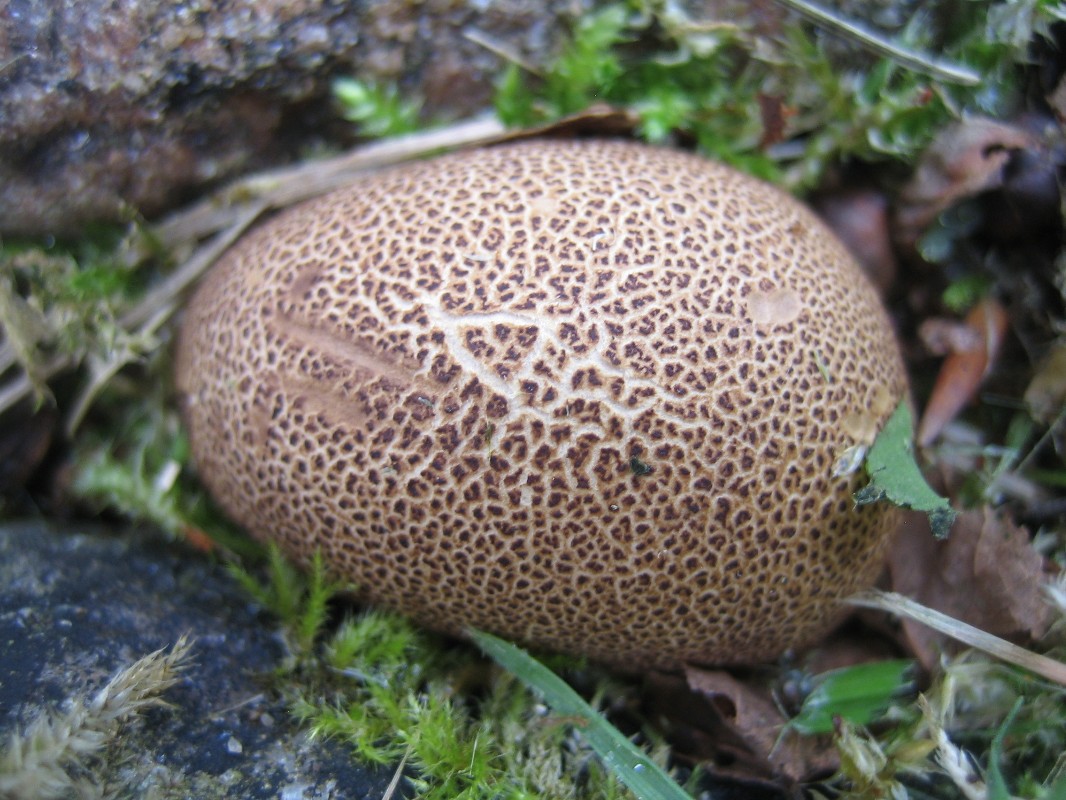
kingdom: Fungi
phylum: Basidiomycota
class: Agaricomycetes
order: Boletales
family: Sclerodermataceae
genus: Scleroderma
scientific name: Scleroderma areolatum
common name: plettet bruskbold
